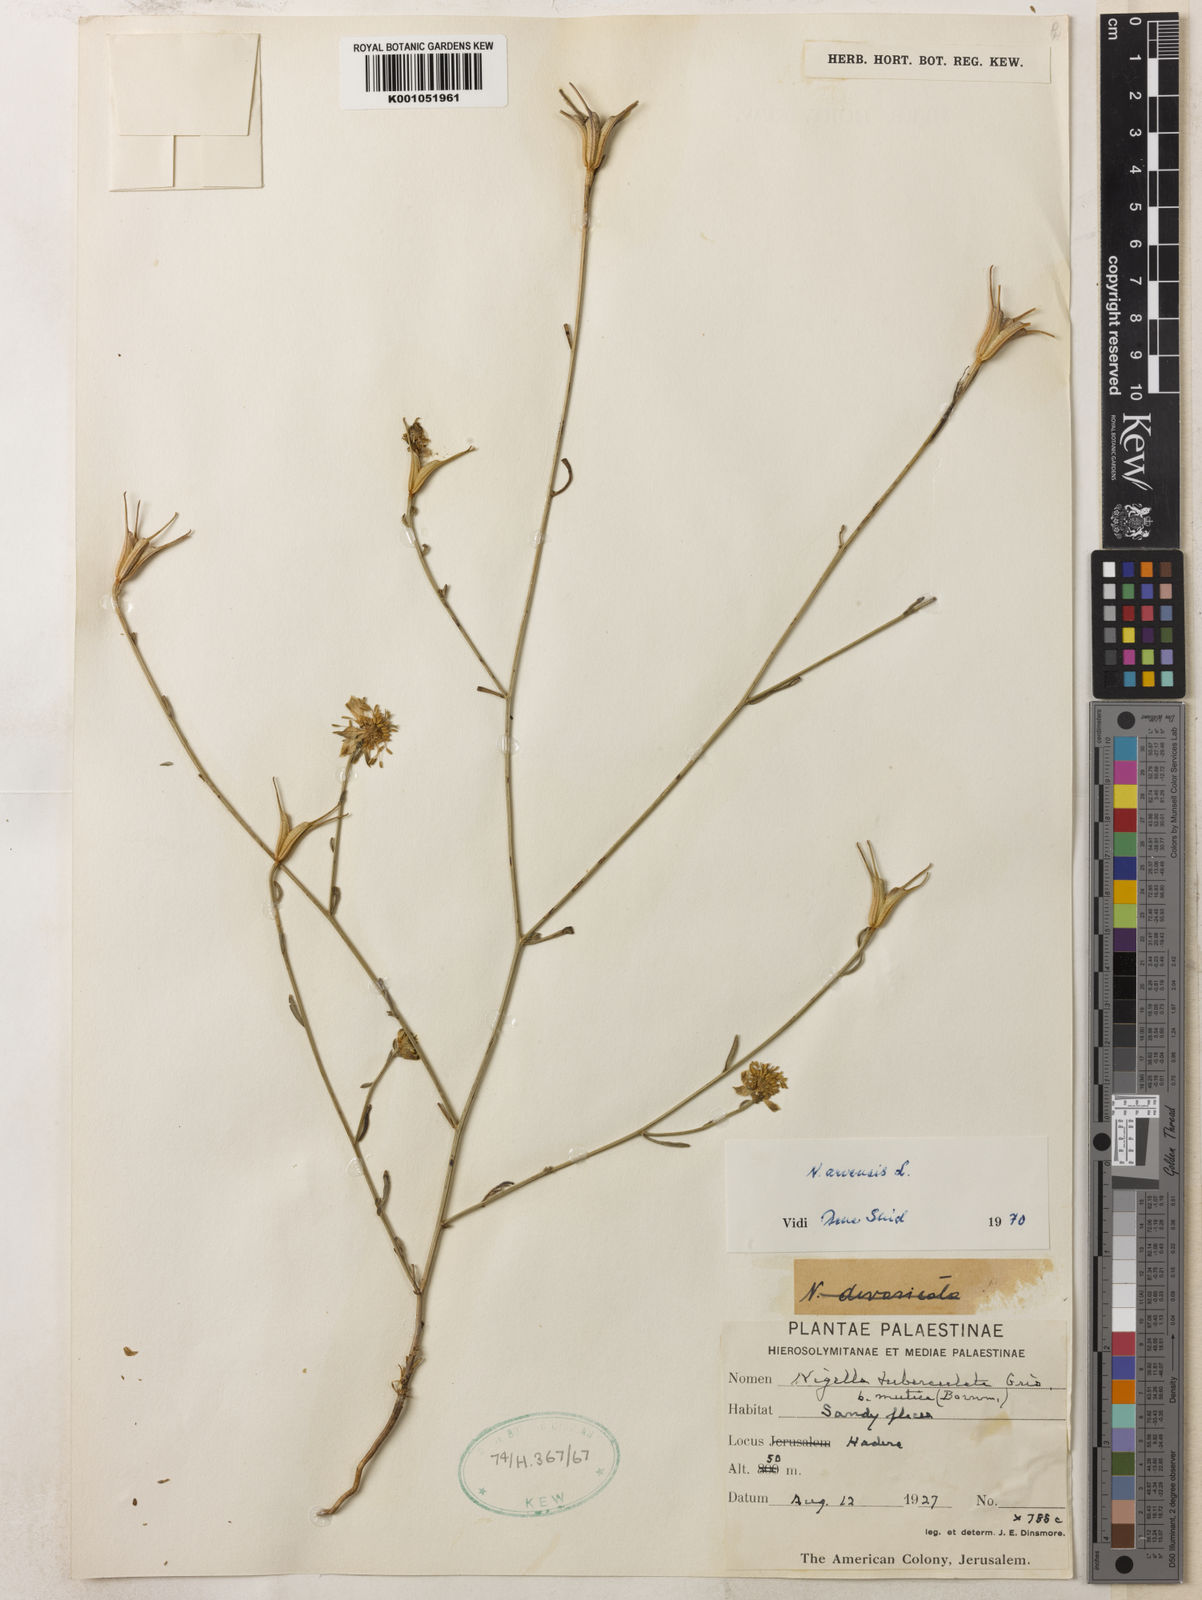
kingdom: Plantae
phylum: Tracheophyta
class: Magnoliopsida
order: Ranunculales
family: Ranunculaceae
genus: Nigella
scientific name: Nigella arvensis
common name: Wild fennel-flower
